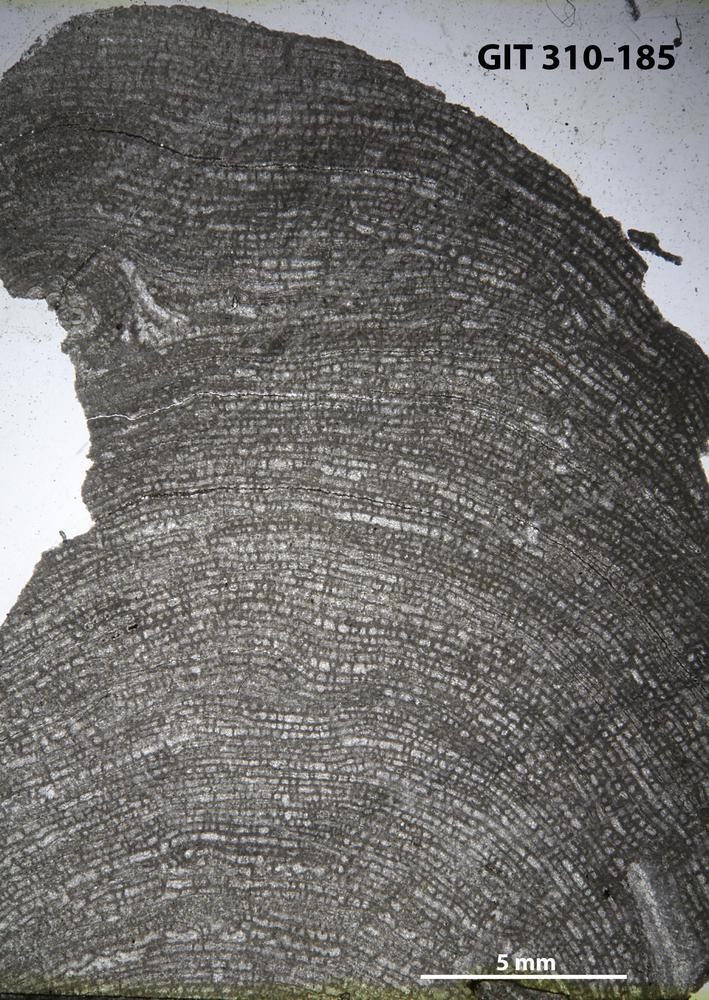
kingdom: Animalia
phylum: Porifera
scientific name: Porifera
